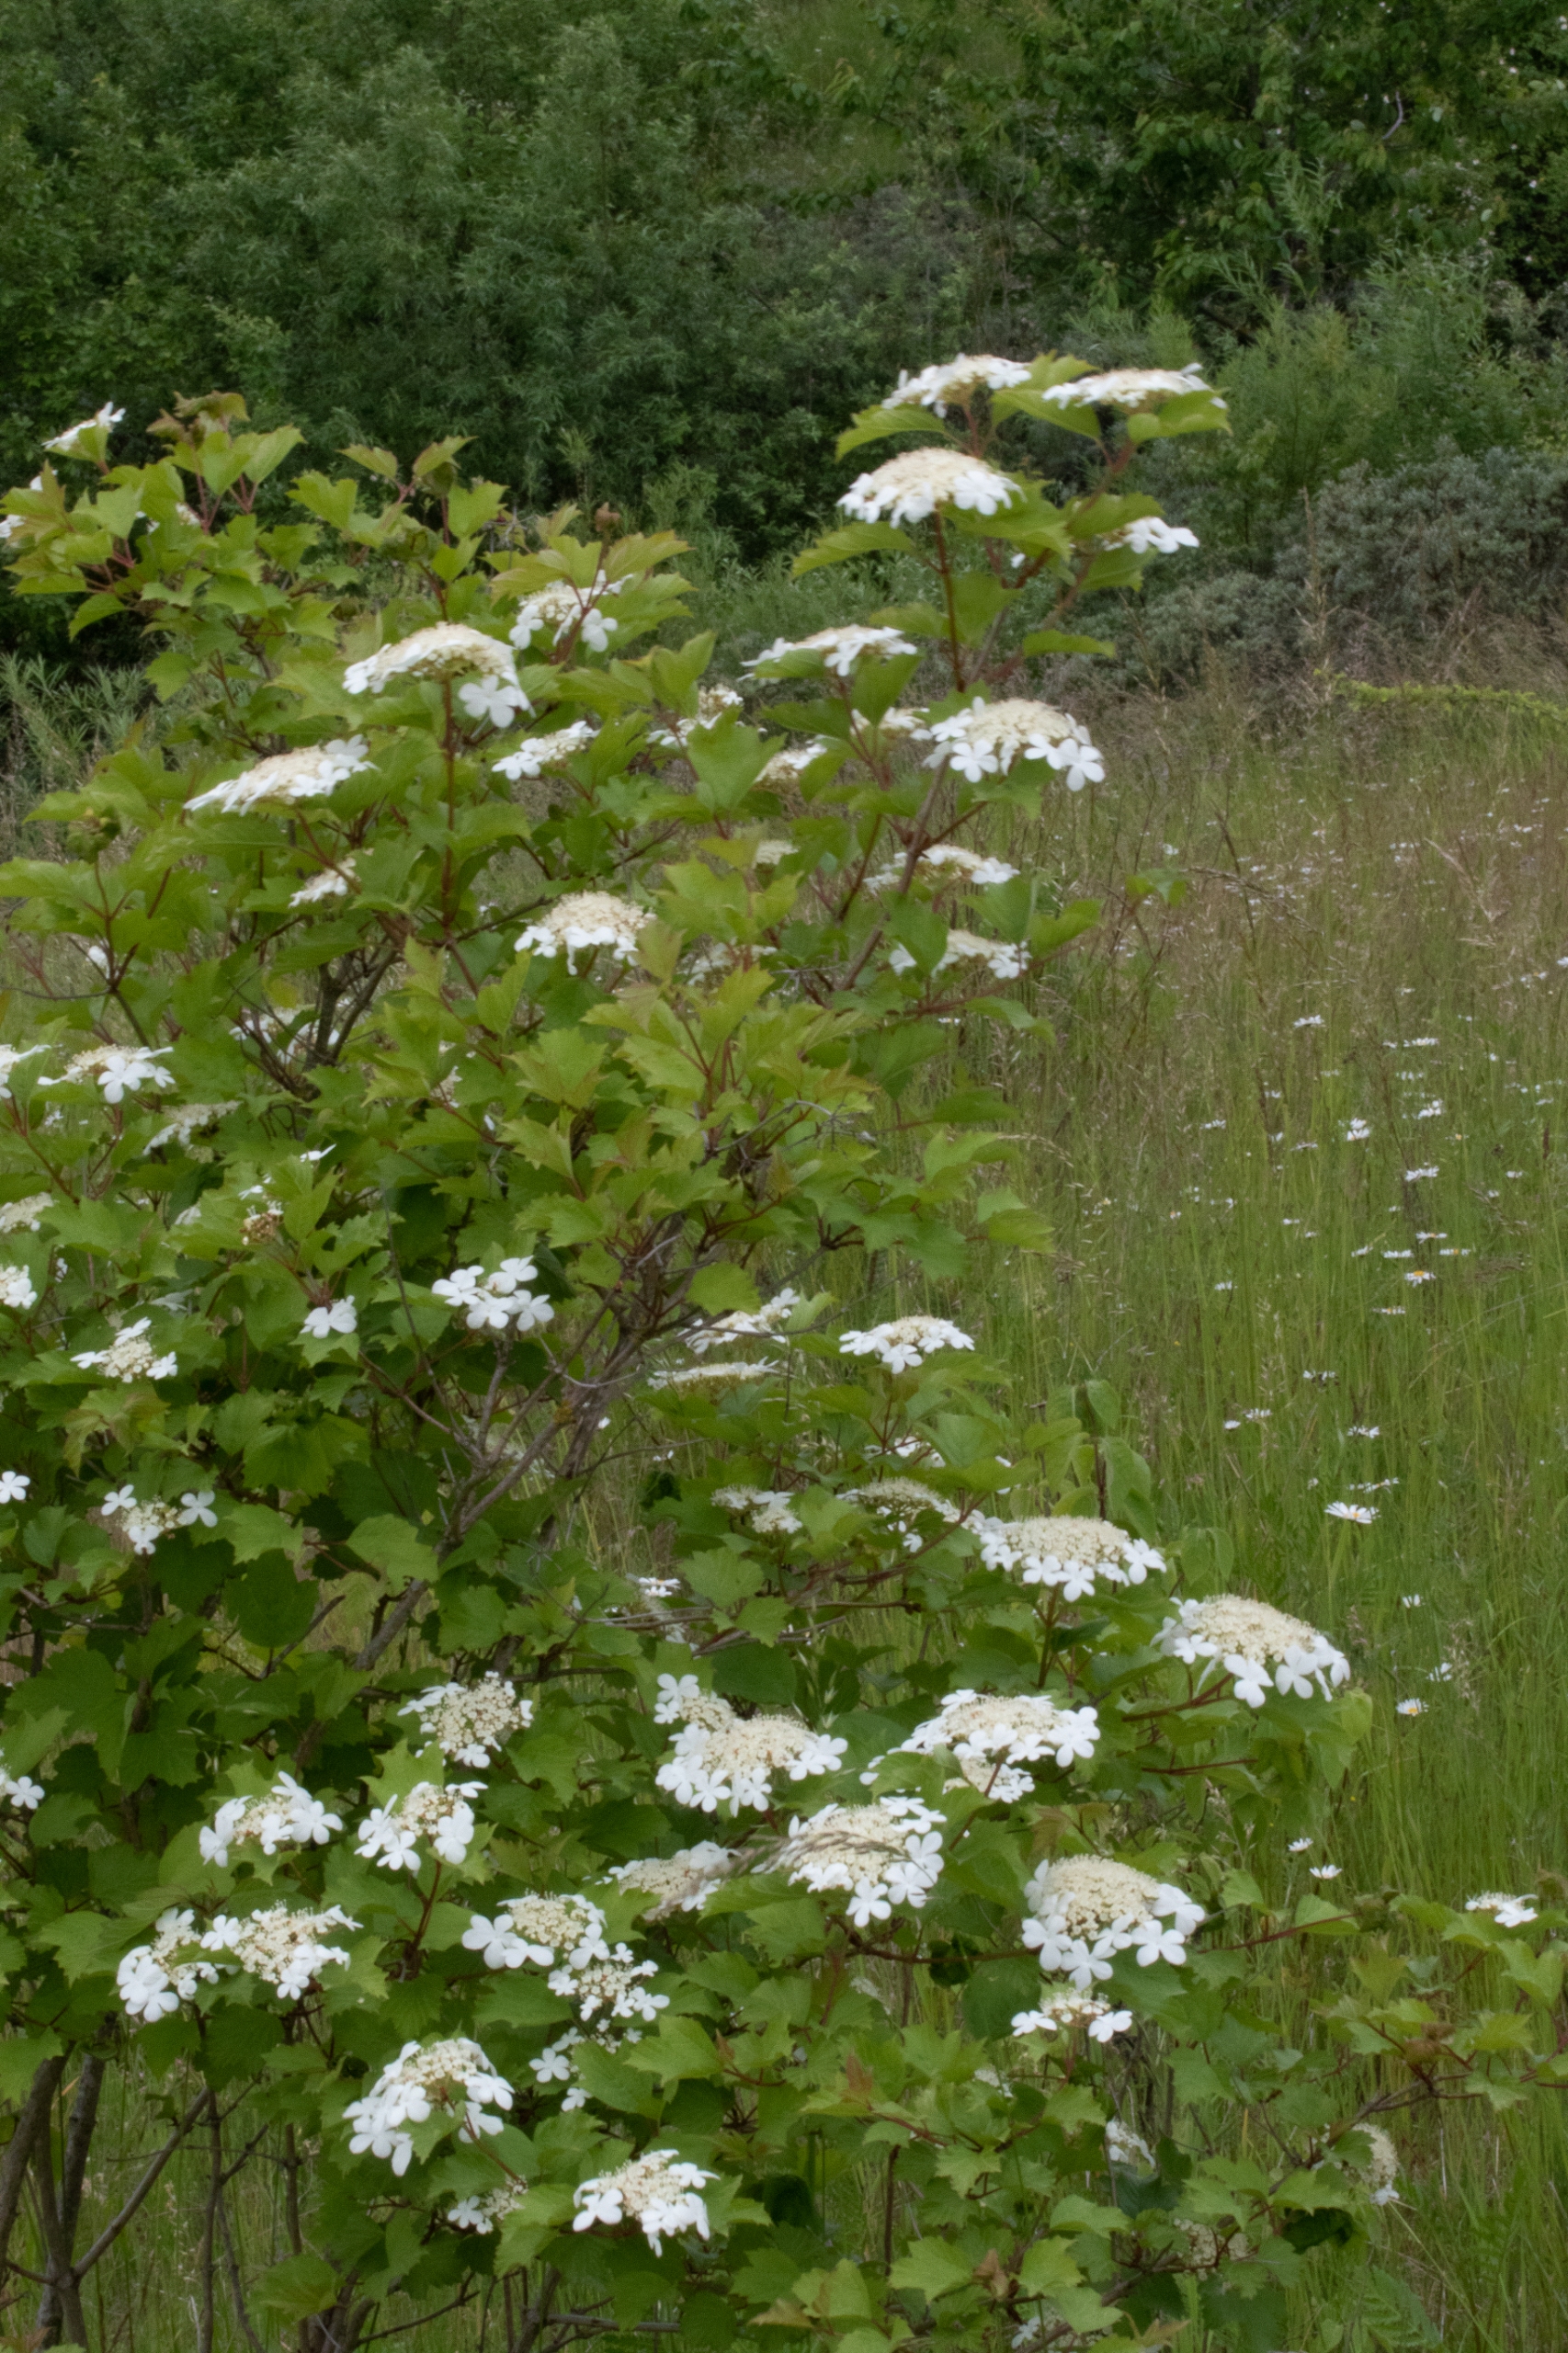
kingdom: Plantae
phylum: Tracheophyta
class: Magnoliopsida
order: Dipsacales
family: Viburnaceae
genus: Viburnum
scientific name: Viburnum opulus
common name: Kvalkved
